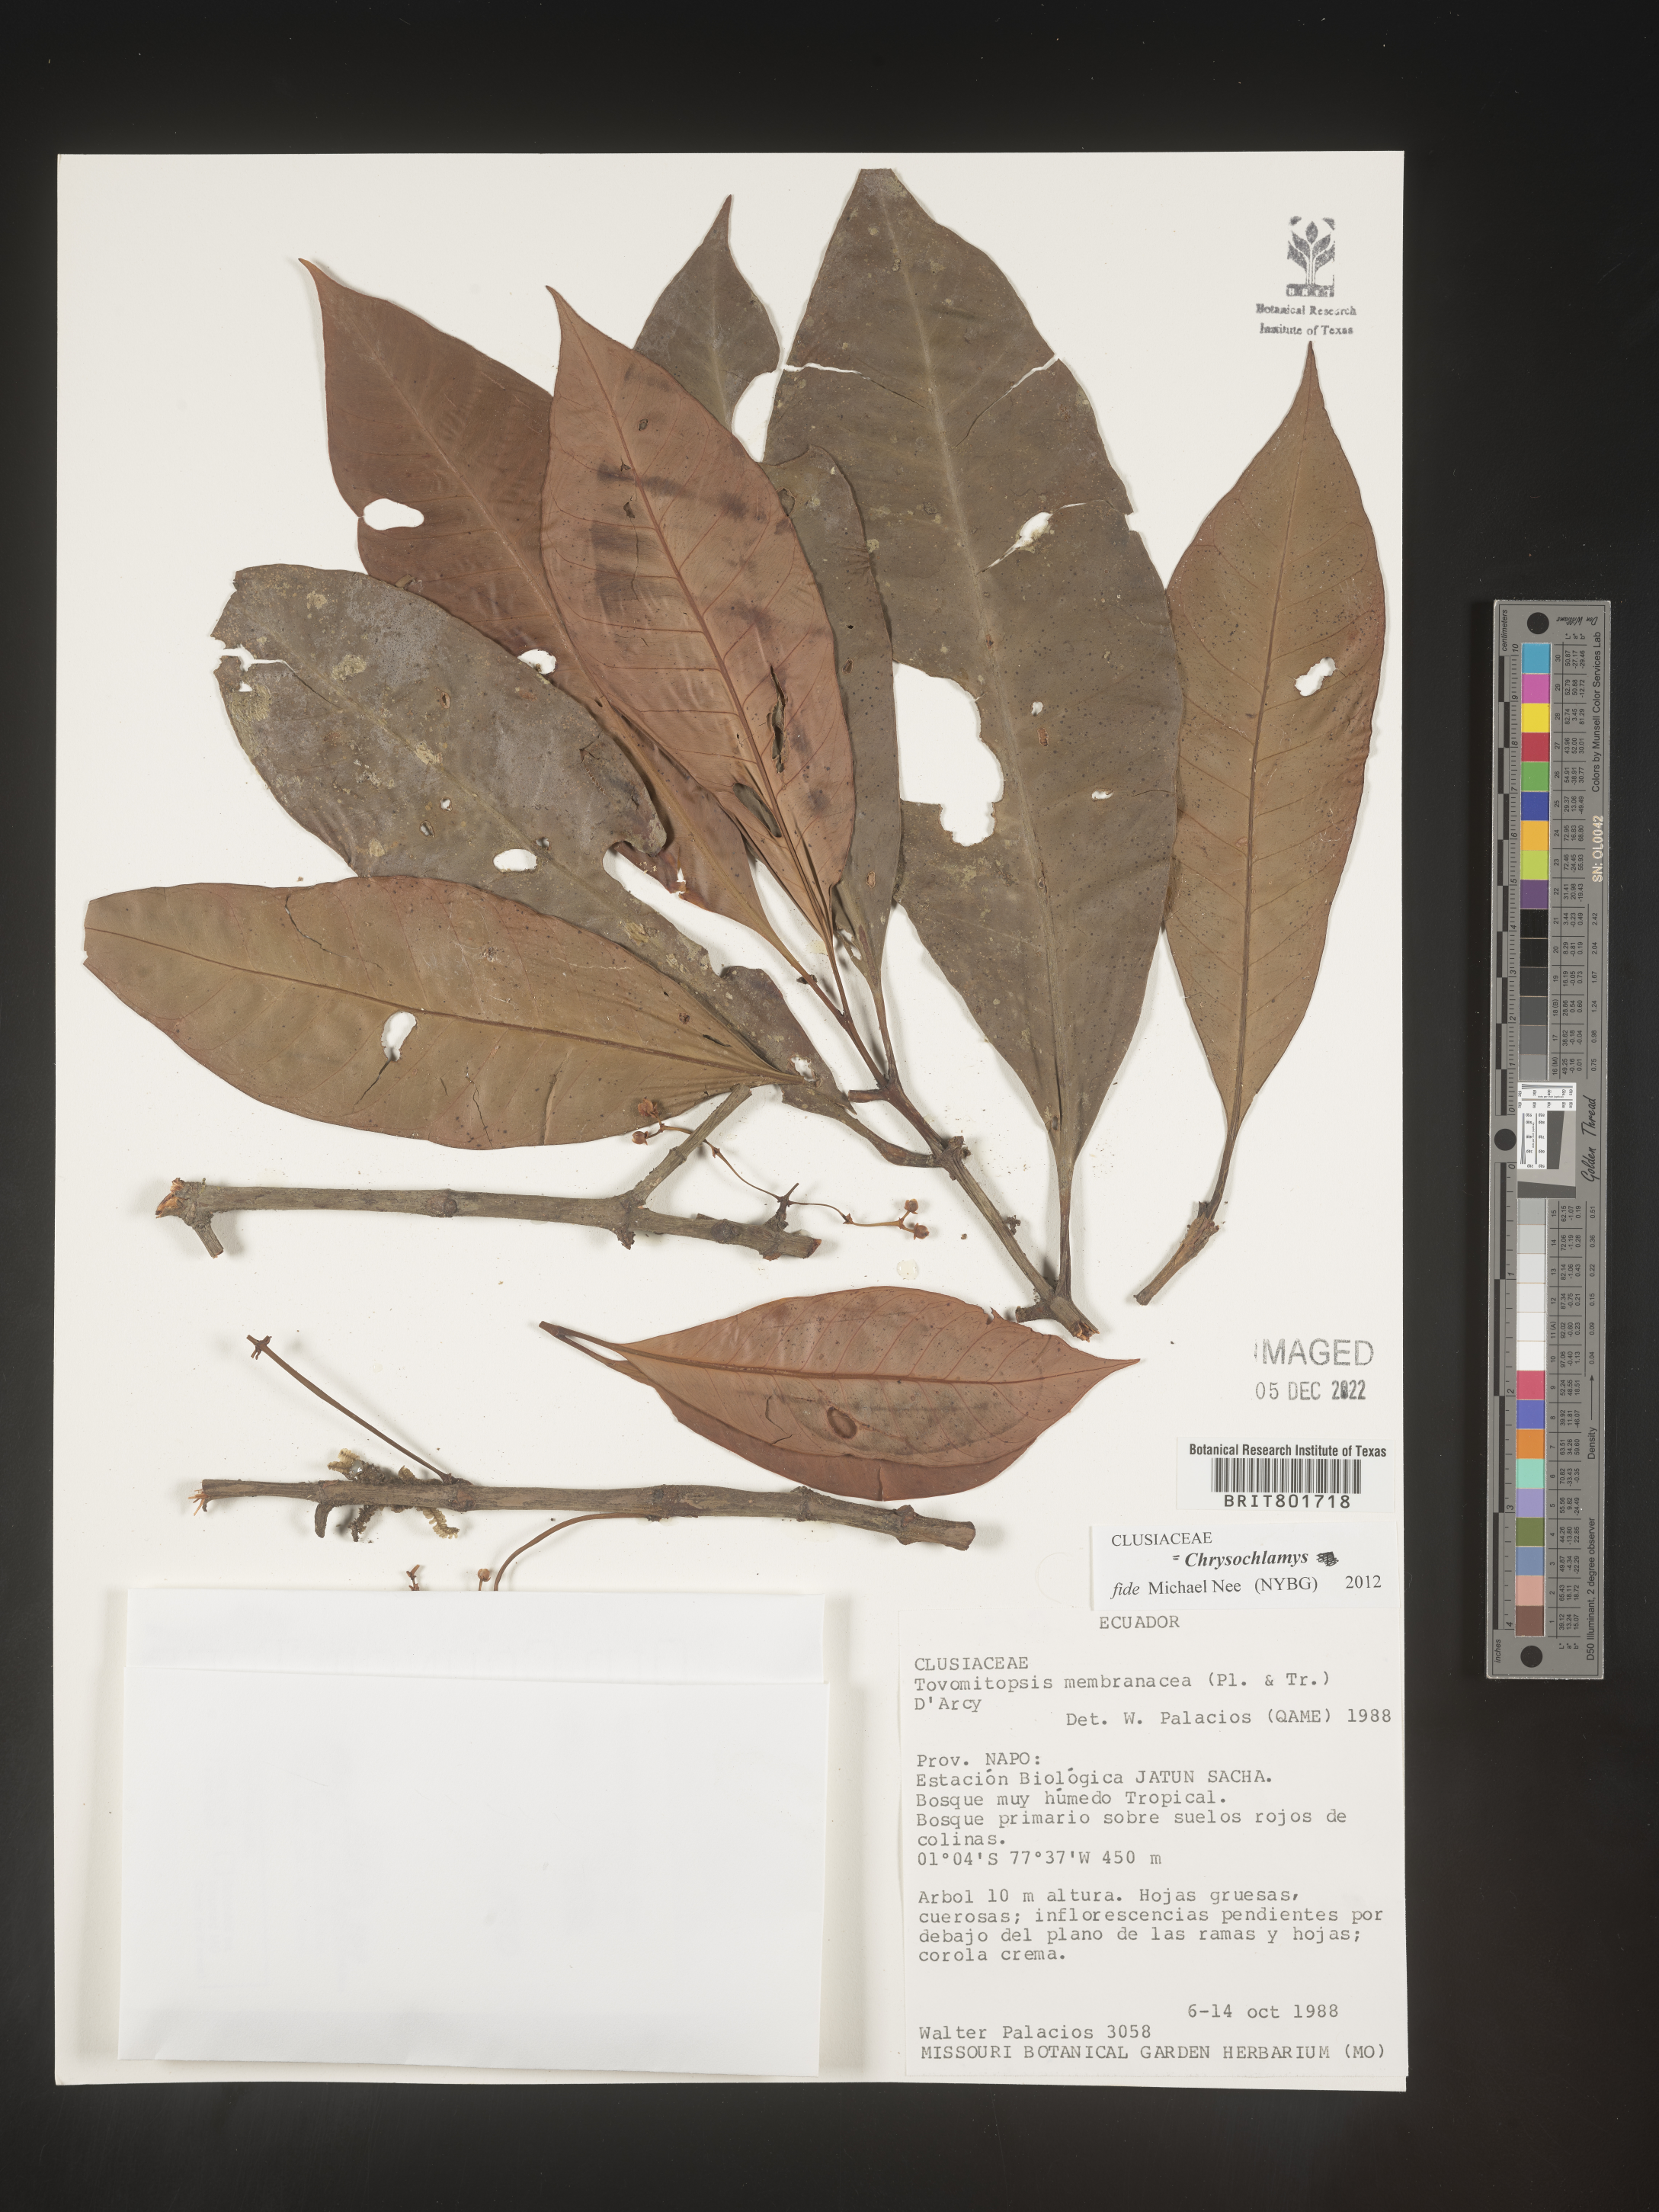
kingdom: Plantae
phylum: Tracheophyta
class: Magnoliopsida
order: Malpighiales
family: Clusiaceae
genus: Chrysochlamys
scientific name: Chrysochlamys membranacea
